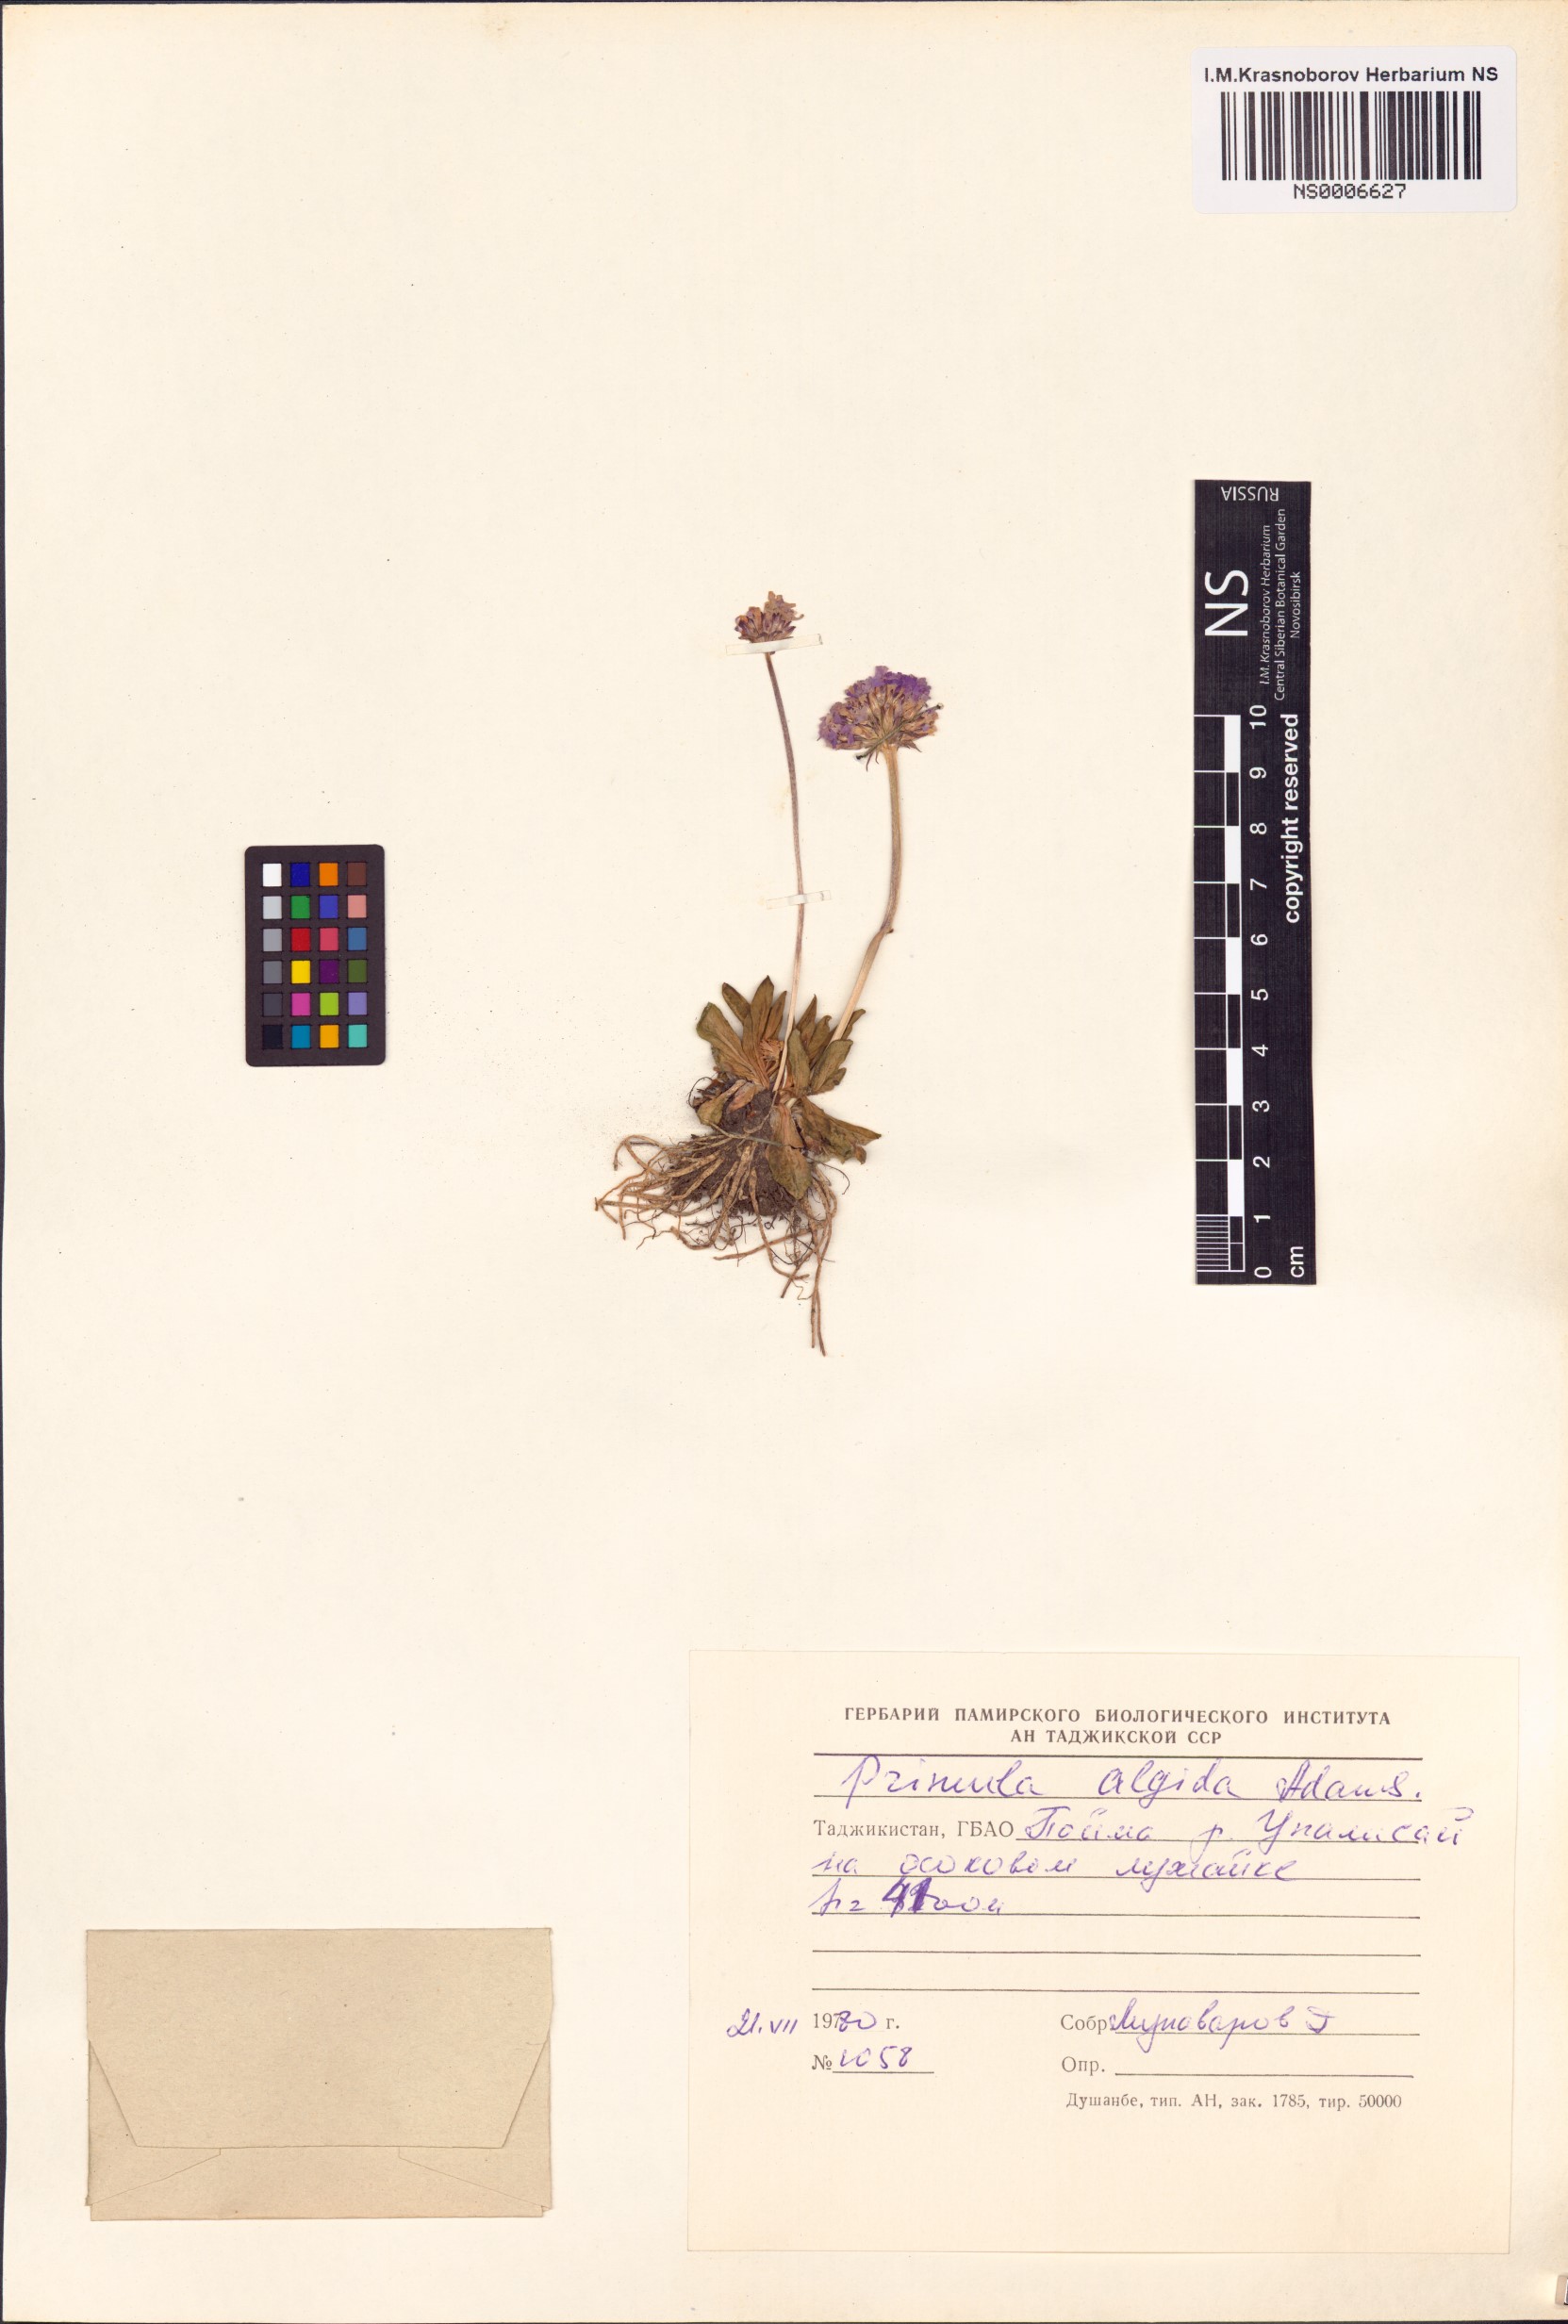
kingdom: Plantae
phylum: Tracheophyta
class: Magnoliopsida
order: Ericales
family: Primulaceae
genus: Primula
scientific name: Primula algida
